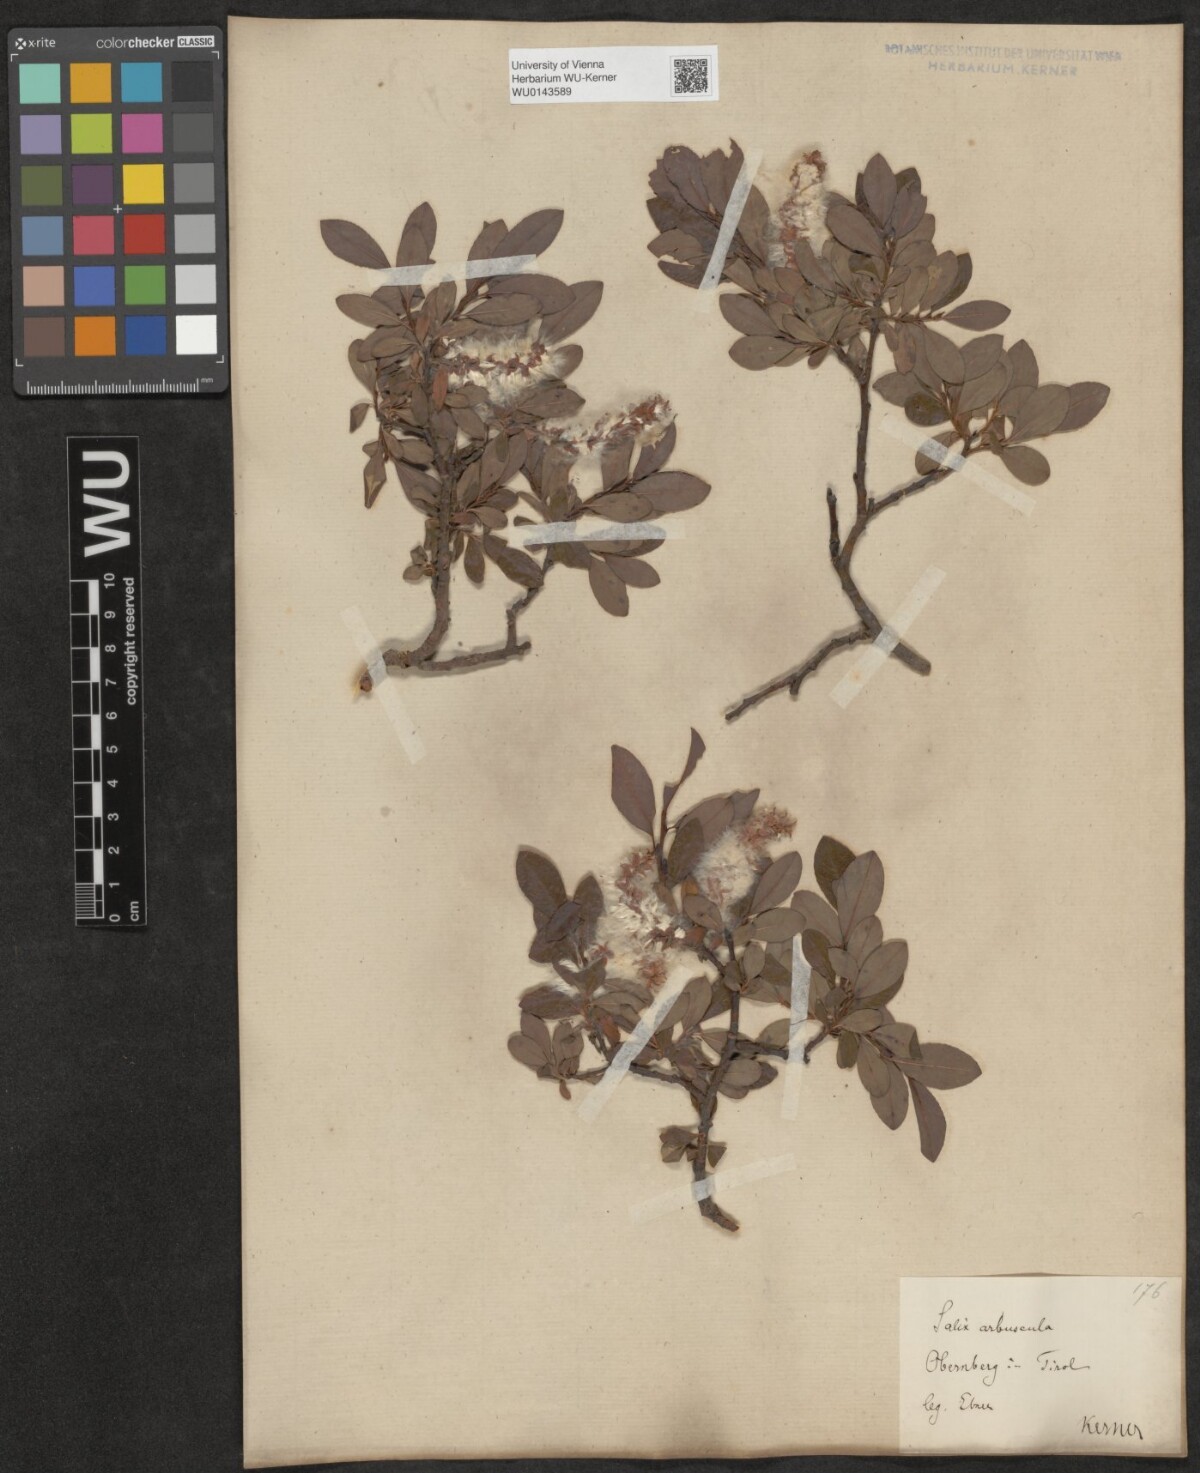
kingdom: Plantae
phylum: Tracheophyta
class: Magnoliopsida
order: Malpighiales
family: Salicaceae
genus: Salix
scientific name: Salix waldsteiniana
